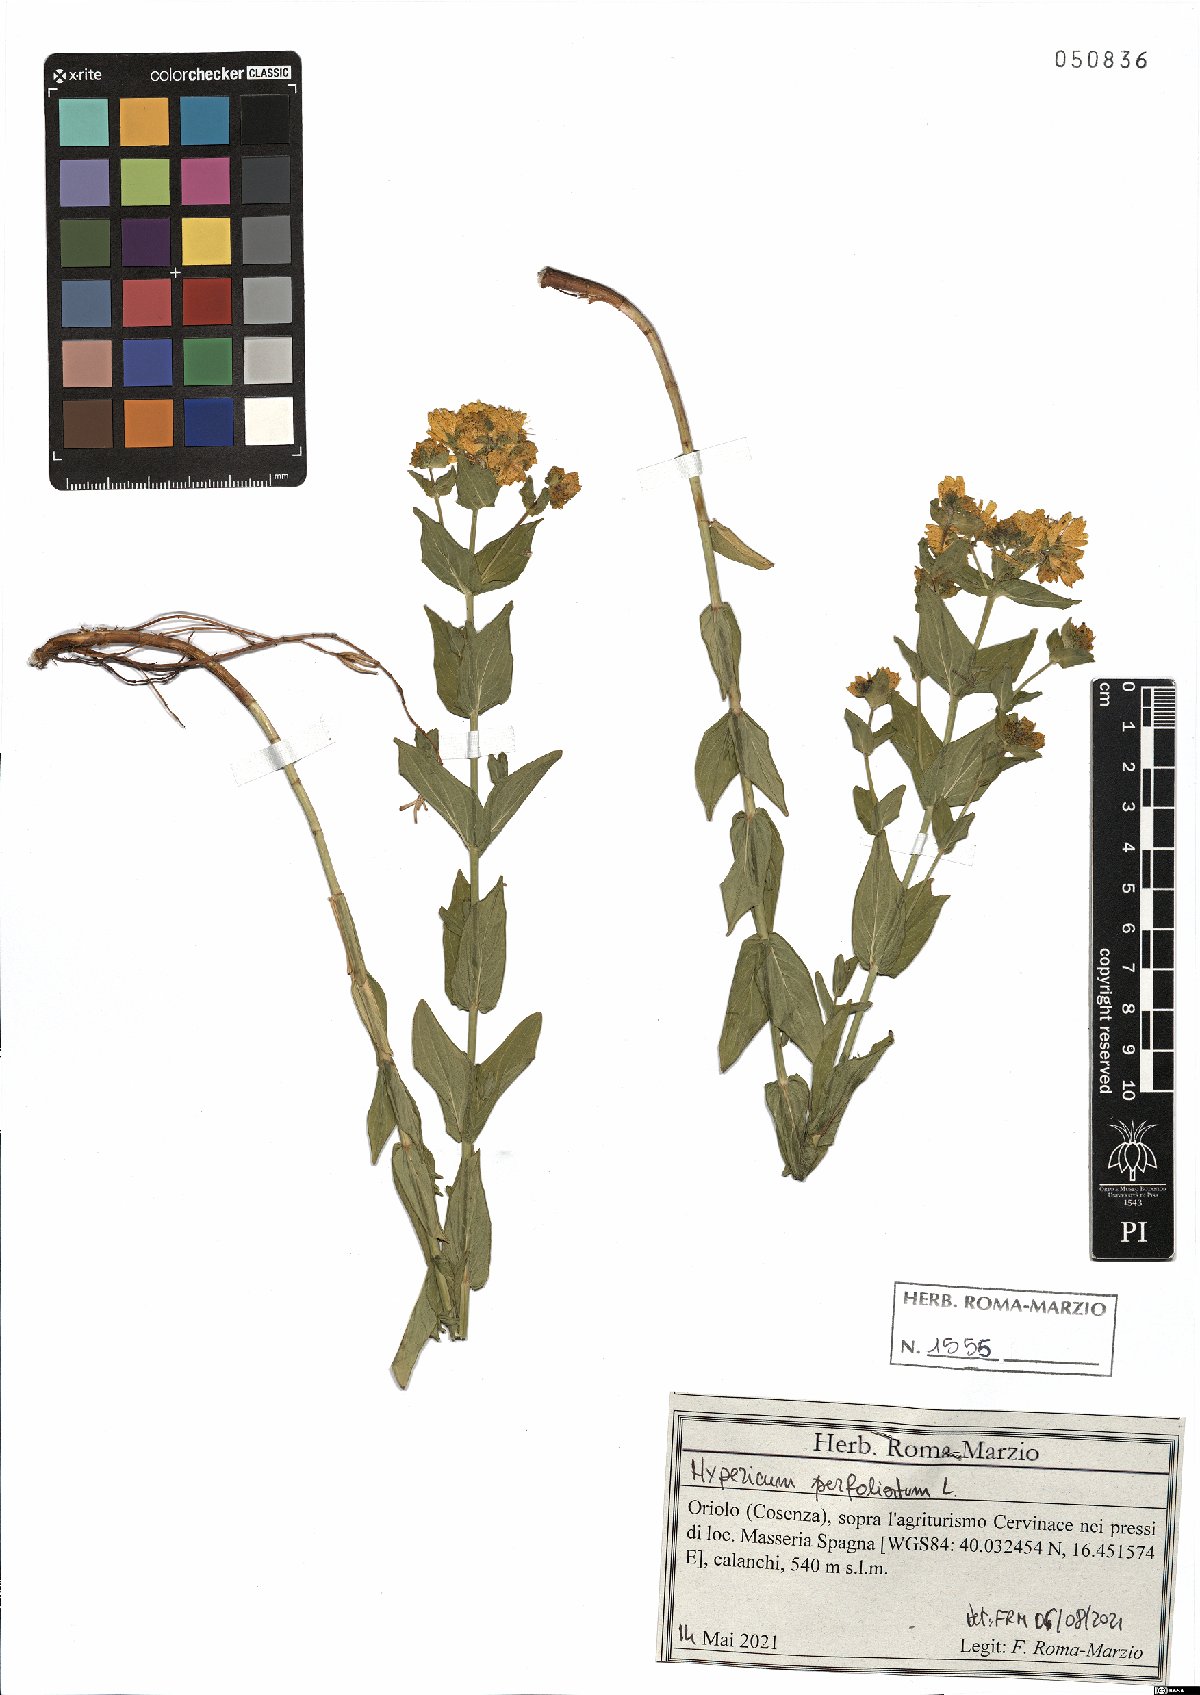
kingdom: Plantae
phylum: Tracheophyta
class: Magnoliopsida
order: Malpighiales
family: Hypericaceae
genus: Hypericum
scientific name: Hypericum perfoliatum
